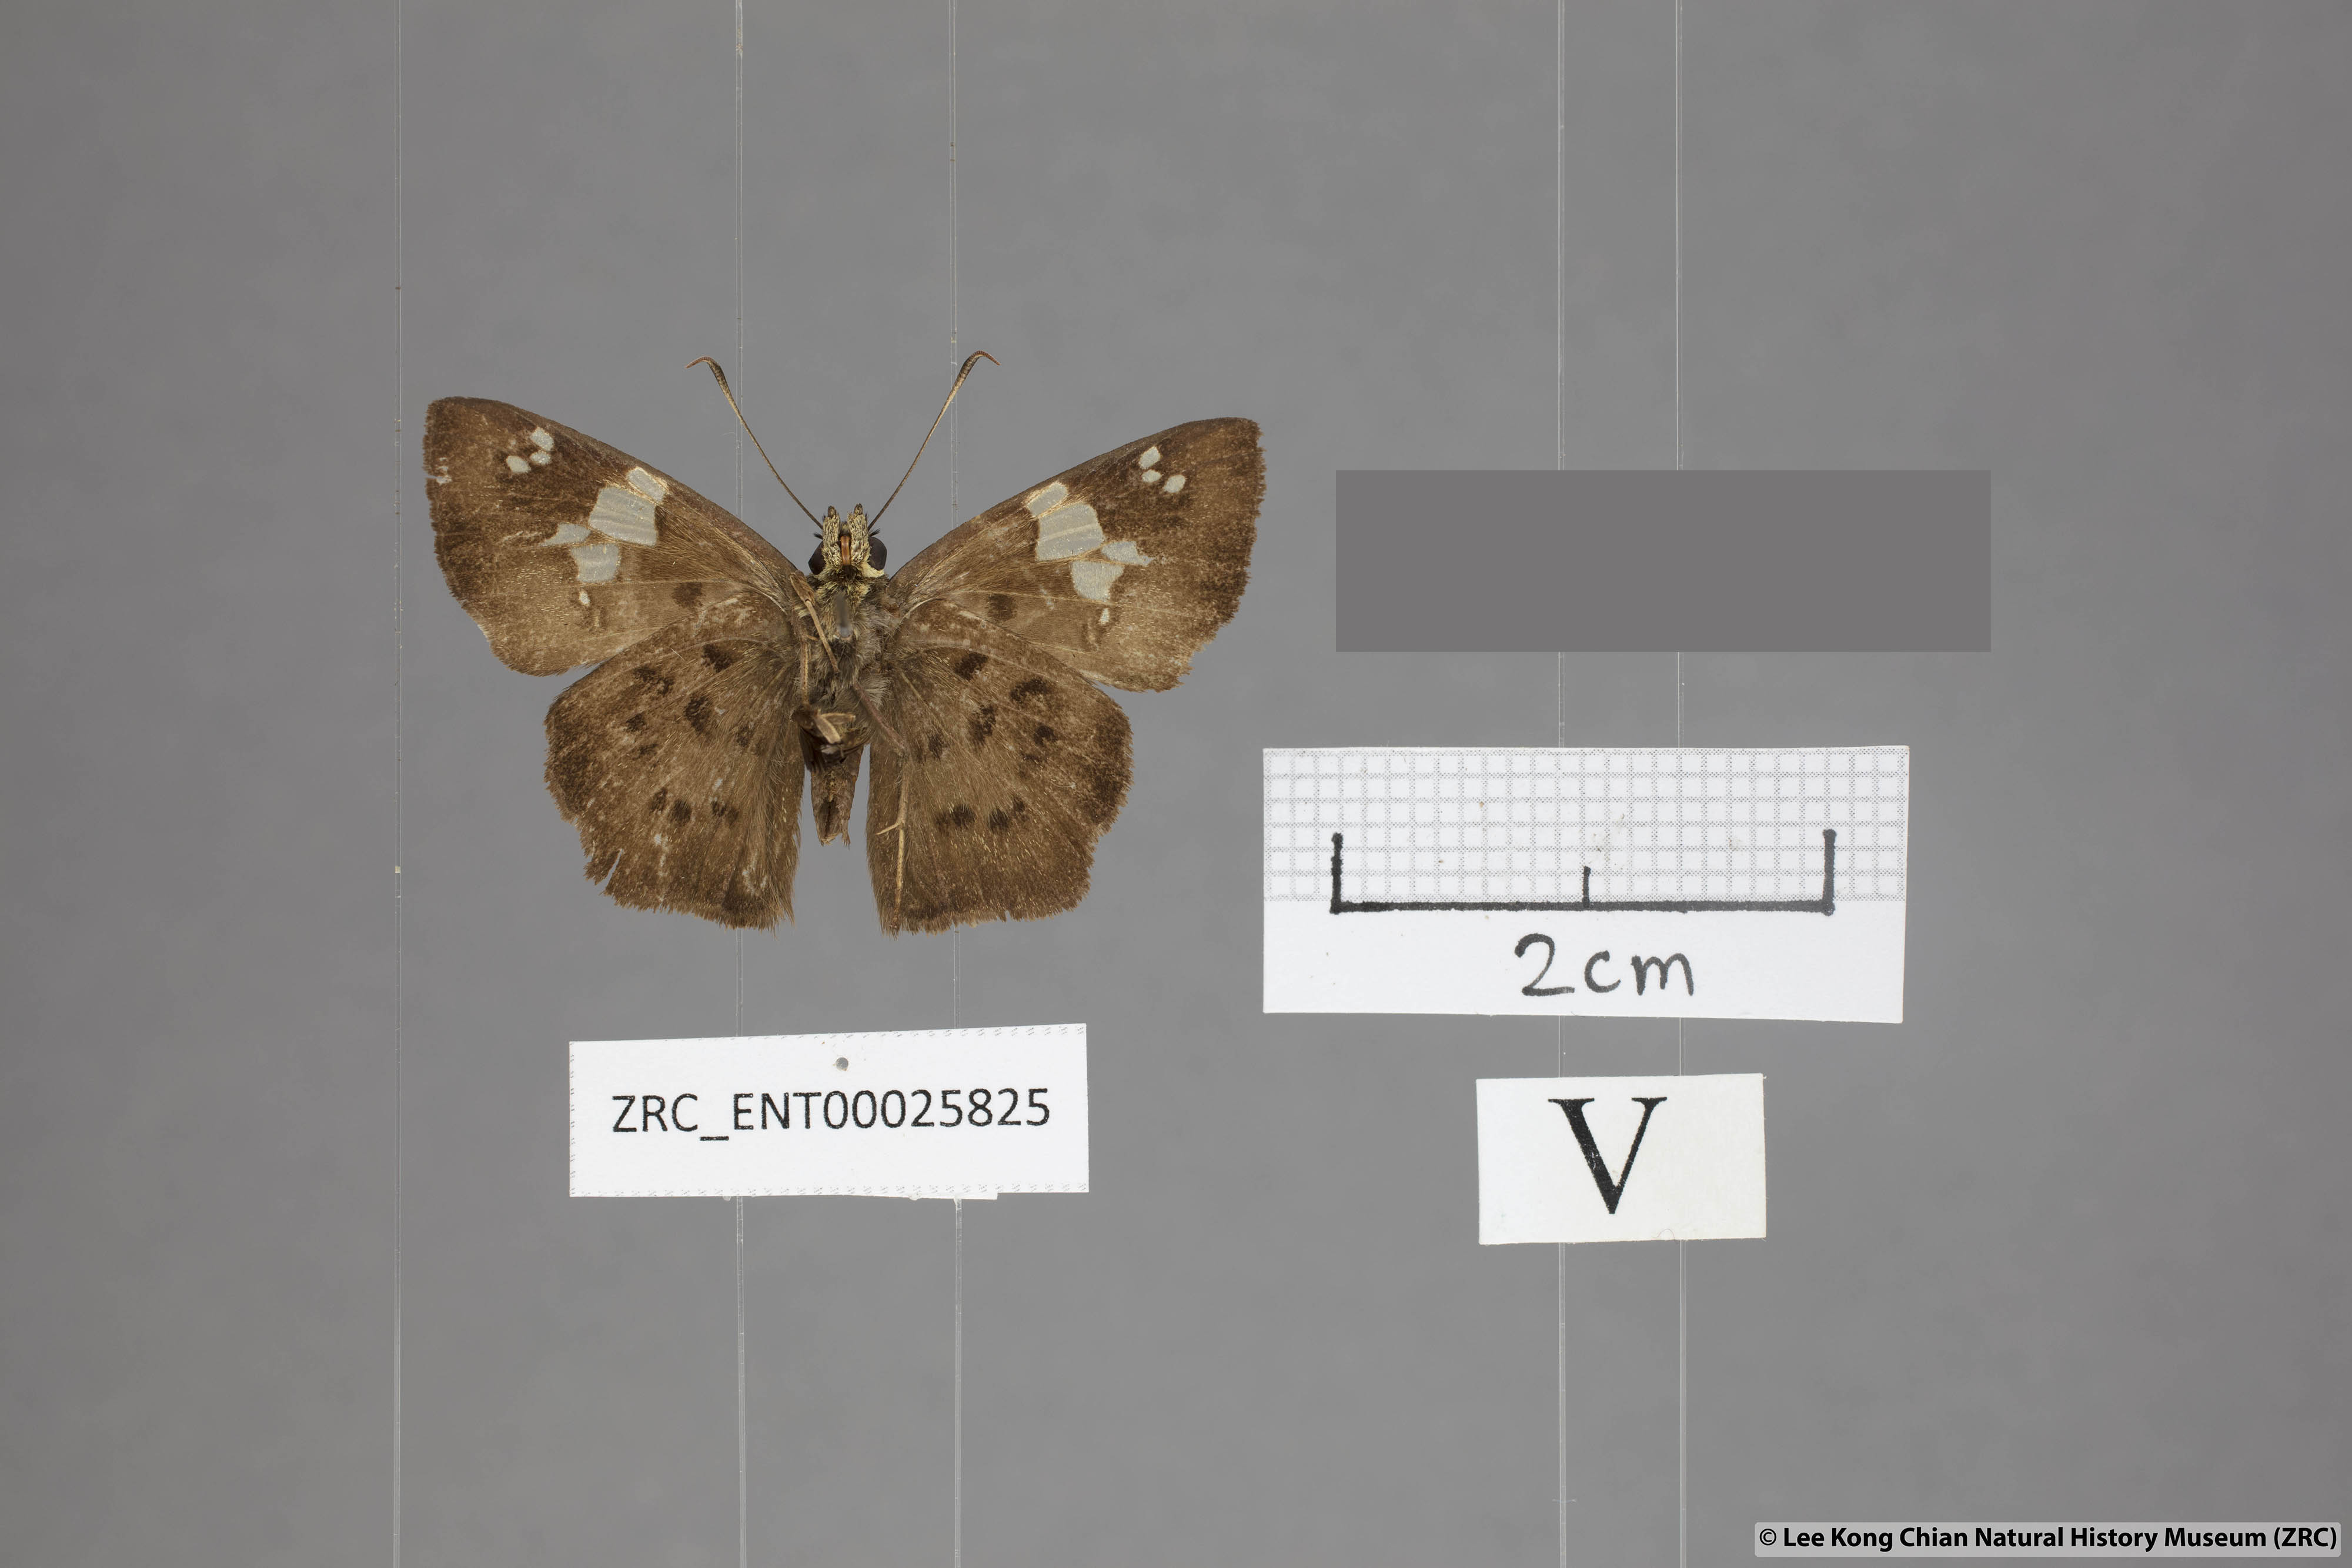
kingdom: Animalia
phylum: Arthropoda
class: Insecta
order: Lepidoptera
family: Hesperiidae
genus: Coladenia
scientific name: Coladenia
